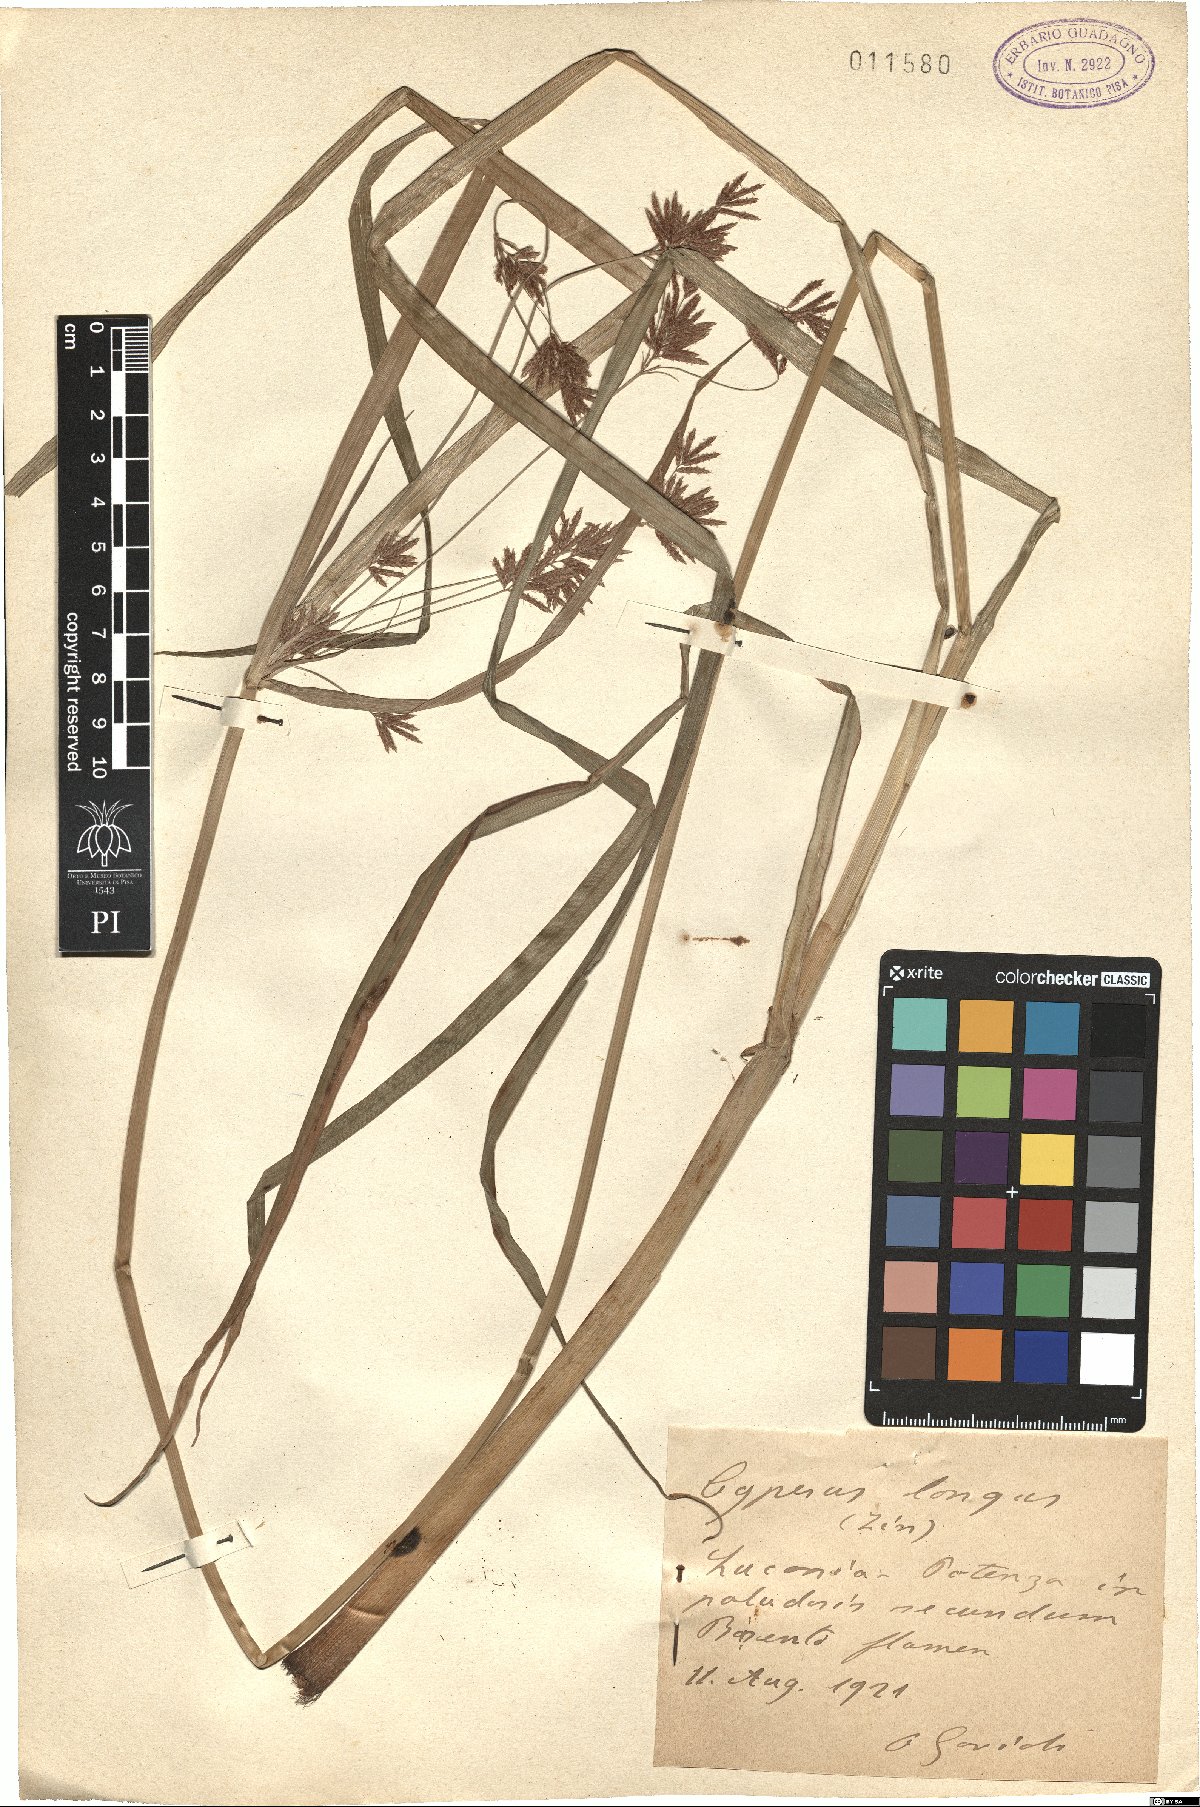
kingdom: Plantae
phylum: Tracheophyta
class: Liliopsida
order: Poales
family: Cyperaceae
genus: Cyperus
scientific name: Cyperus longus
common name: Galingale
